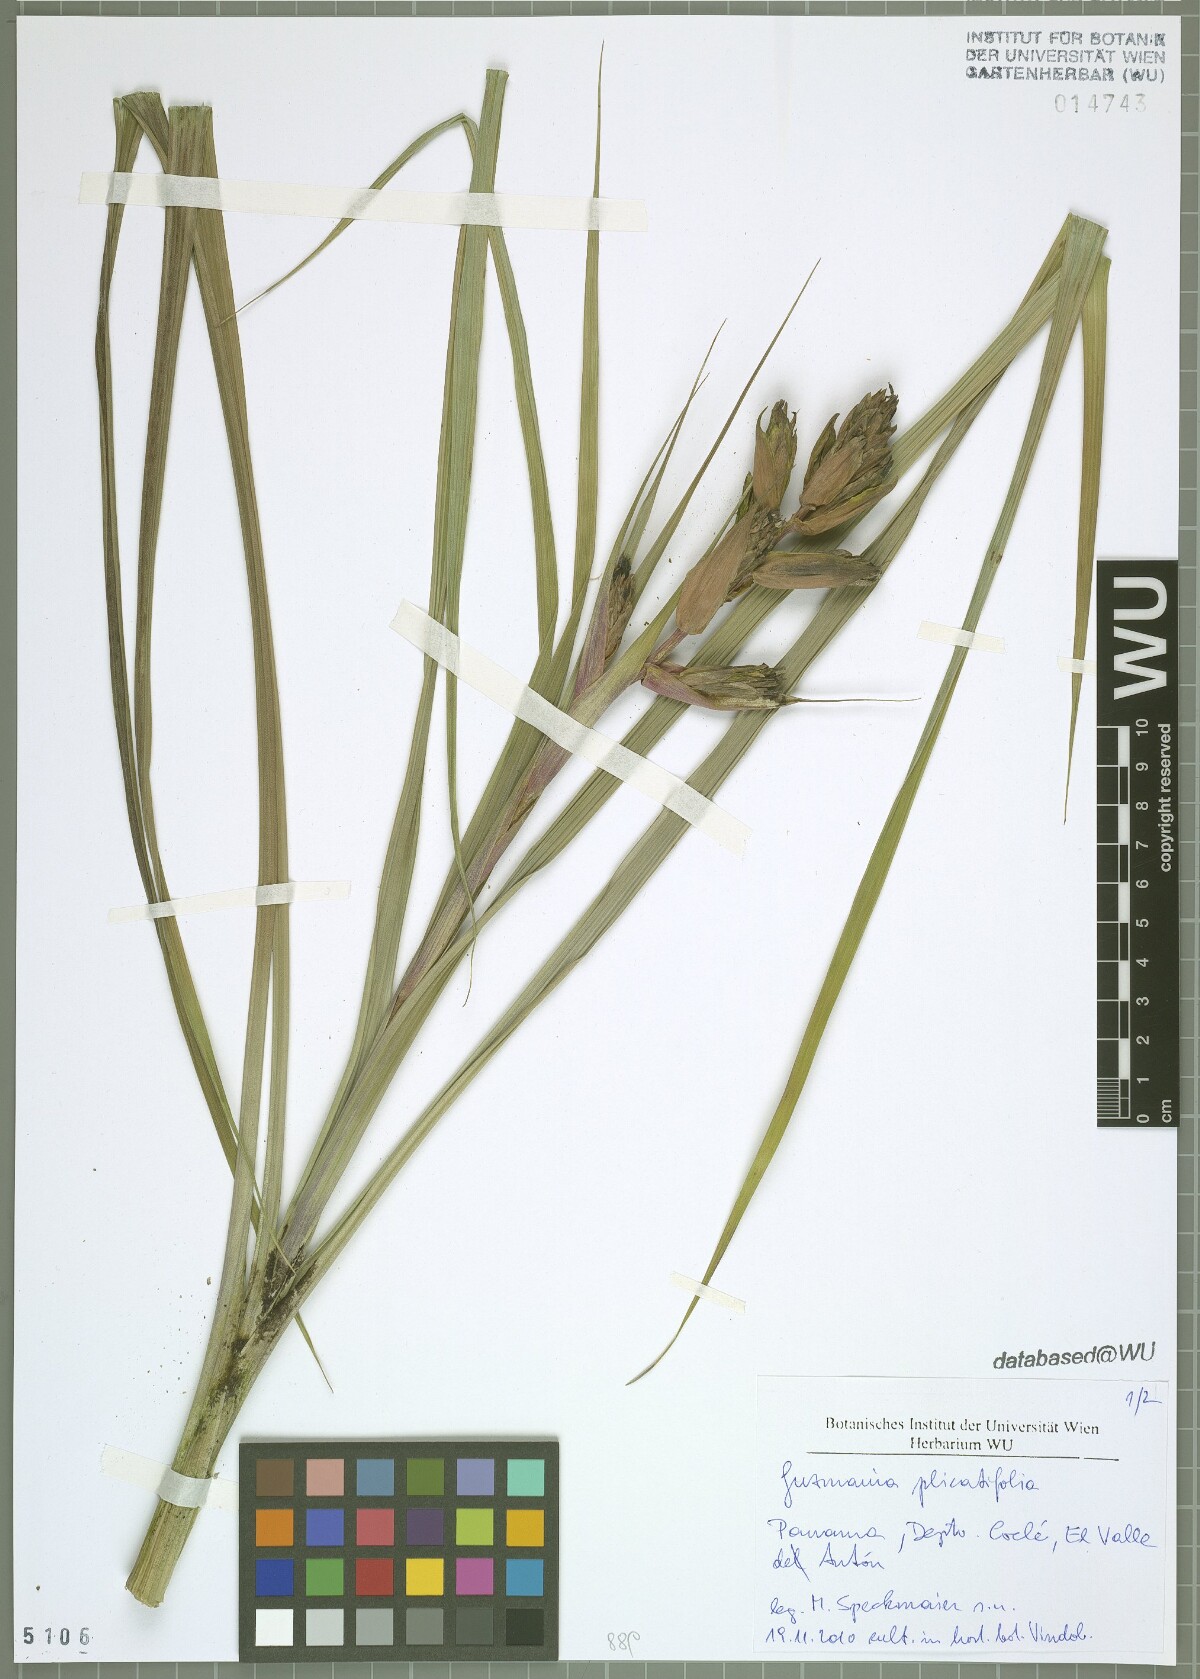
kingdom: Plantae
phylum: Tracheophyta
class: Liliopsida
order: Poales
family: Bromeliaceae
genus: Guzmania
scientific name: Guzmania plicatifolia
